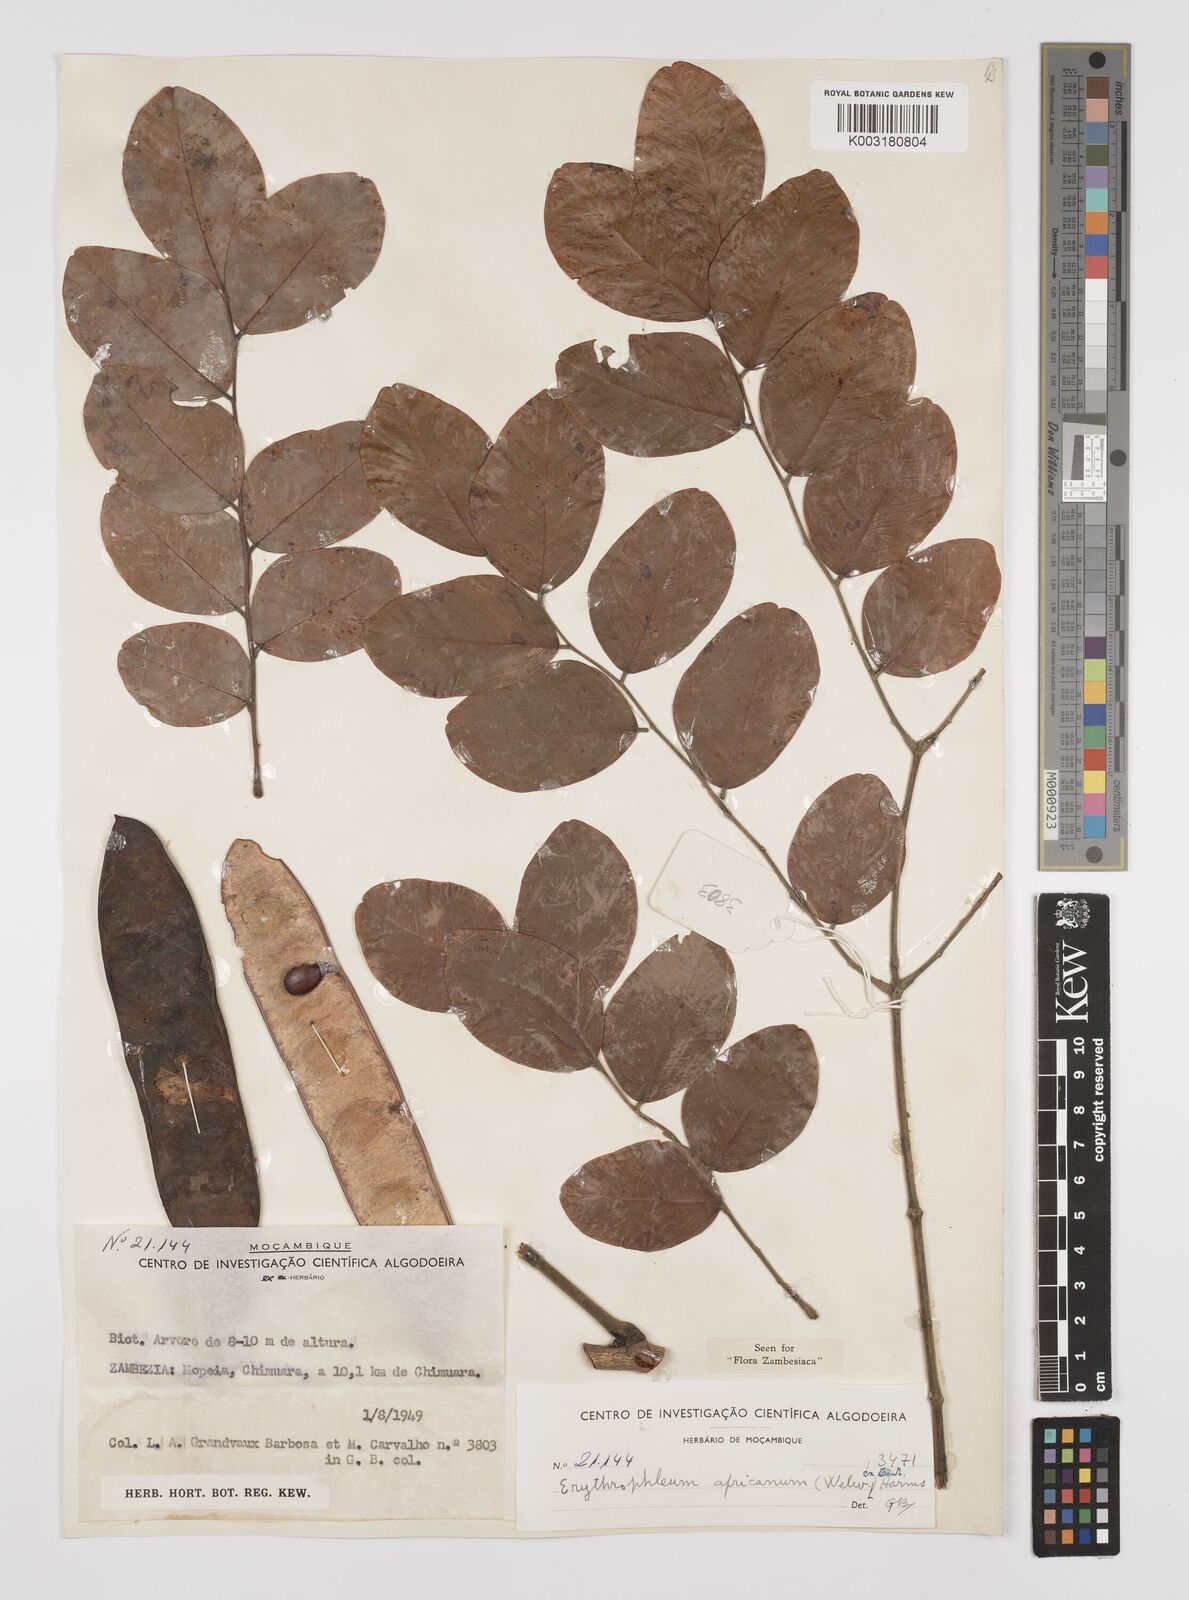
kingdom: Plantae
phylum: Tracheophyta
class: Magnoliopsida
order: Fabales
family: Fabaceae
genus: Peltophorum
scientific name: Peltophorum africanum
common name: African black wattle
